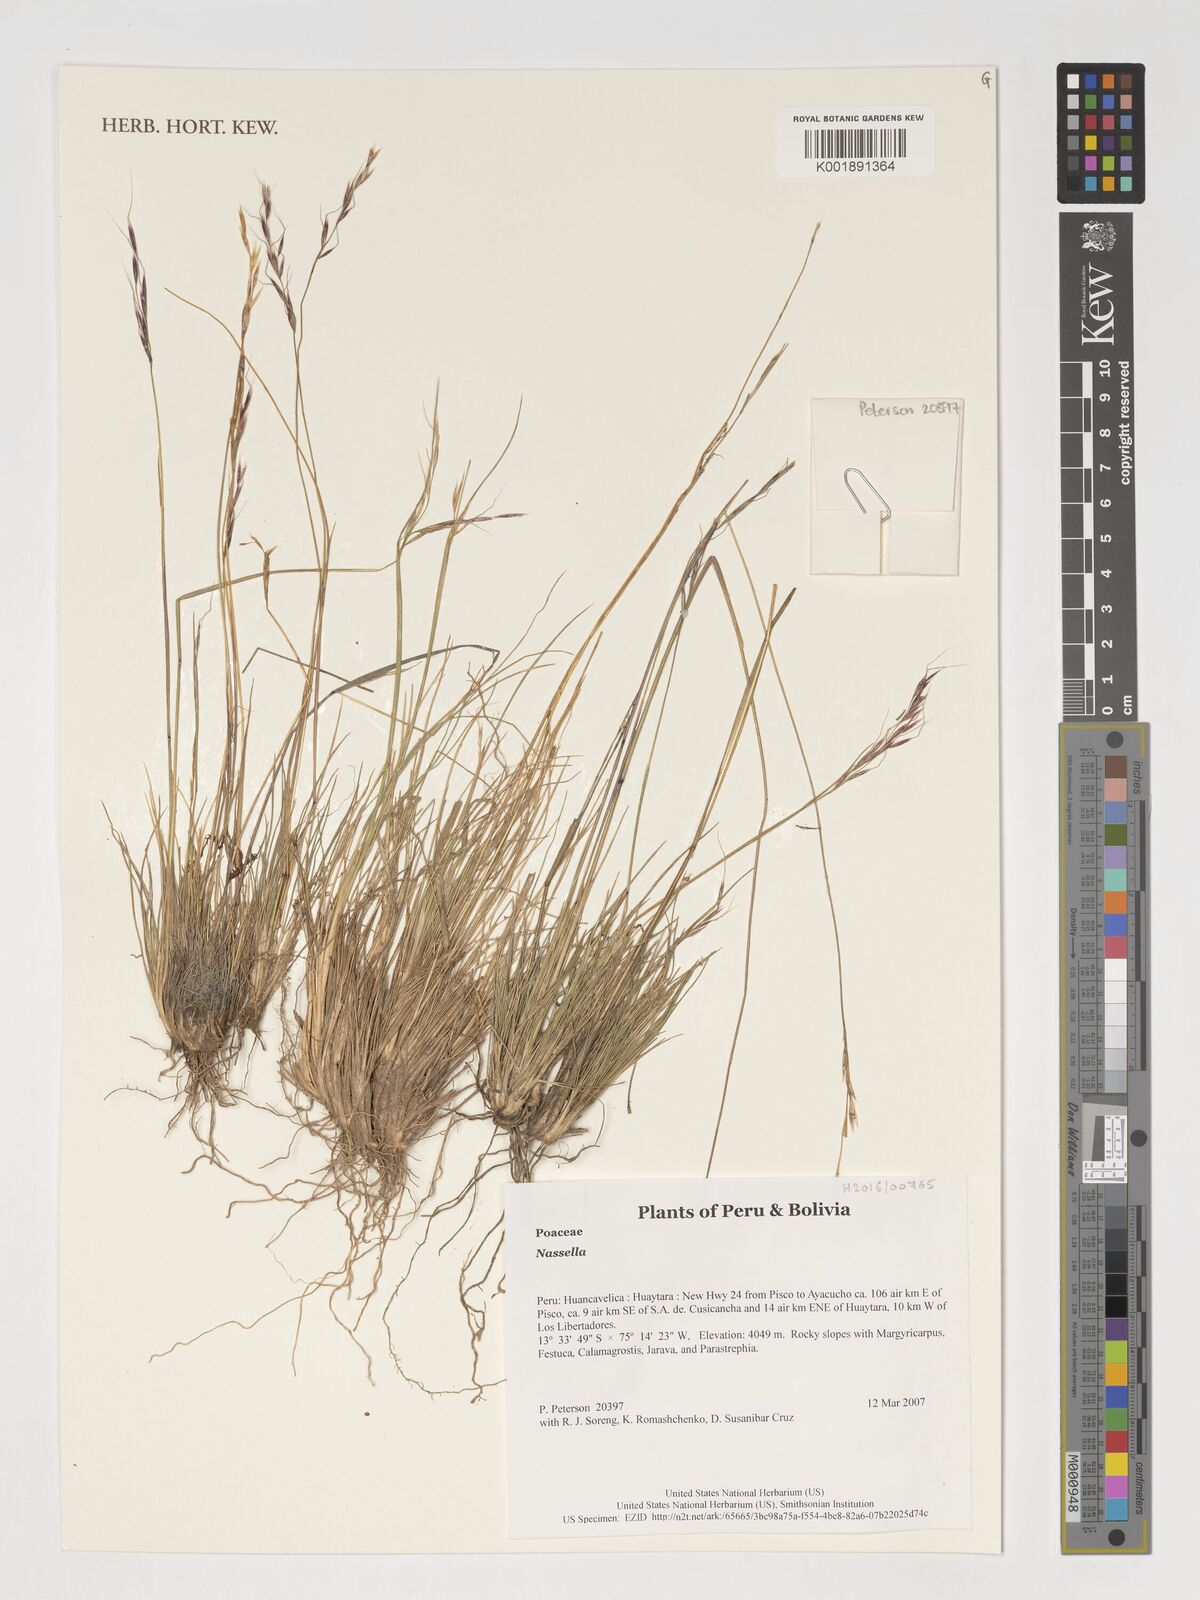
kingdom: Plantae
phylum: Tracheophyta
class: Liliopsida
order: Poales
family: Poaceae
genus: Nassella
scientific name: Nassella
